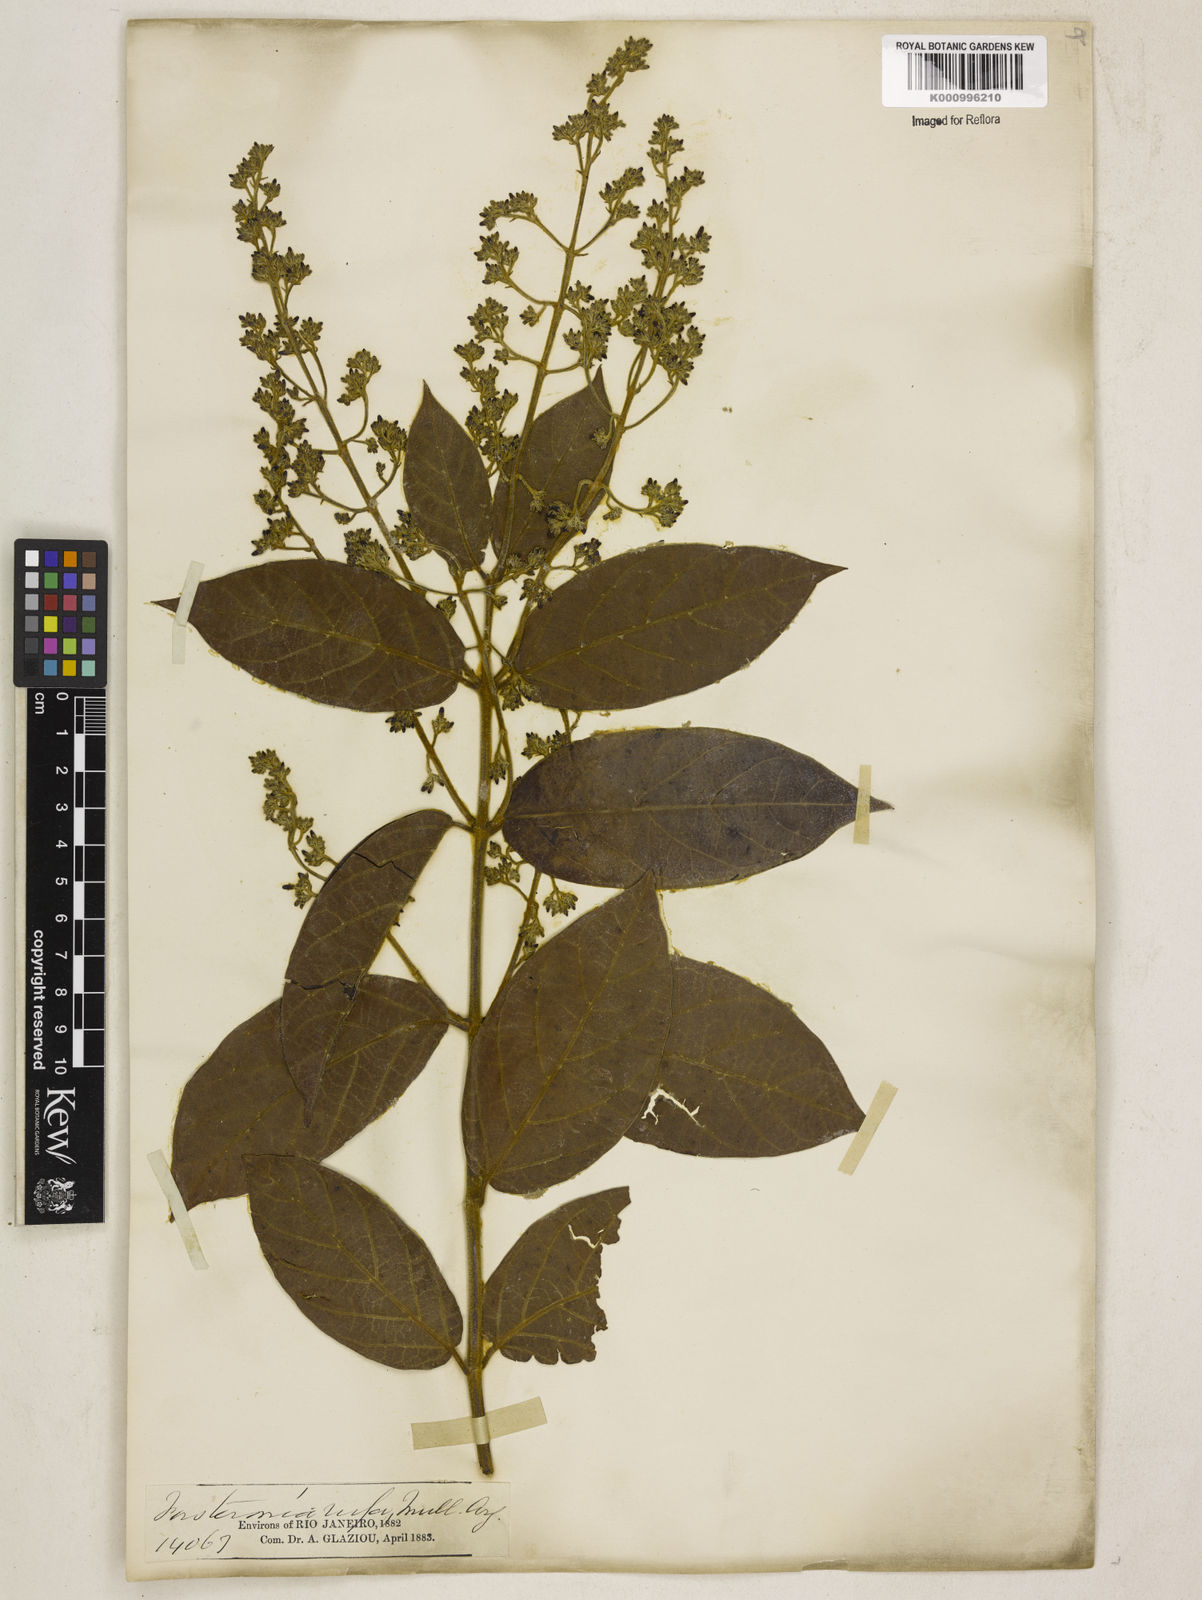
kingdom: Plantae
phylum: Tracheophyta
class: Magnoliopsida
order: Gentianales
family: Apocynaceae
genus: Forsteronia
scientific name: Forsteronia
